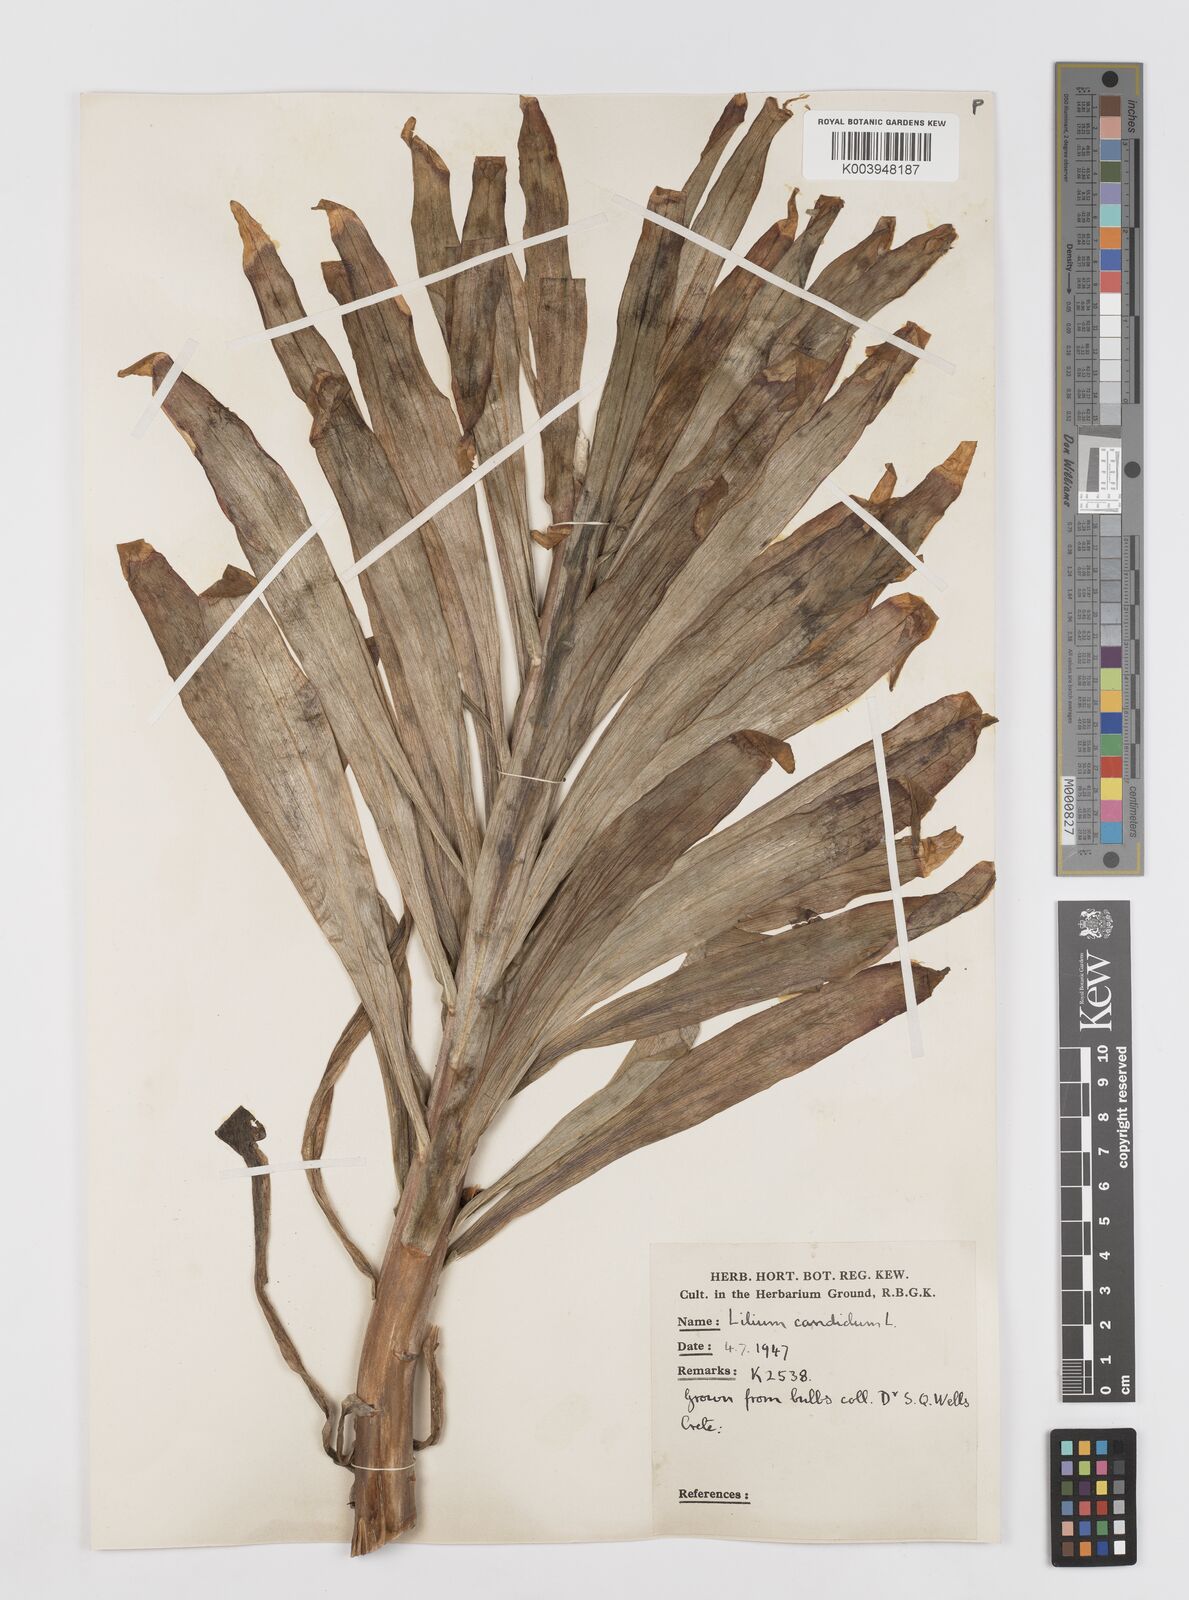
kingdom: Plantae
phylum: Tracheophyta
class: Liliopsida
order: Liliales
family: Liliaceae
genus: Lilium
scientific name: Lilium candidum
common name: Madonna lily
